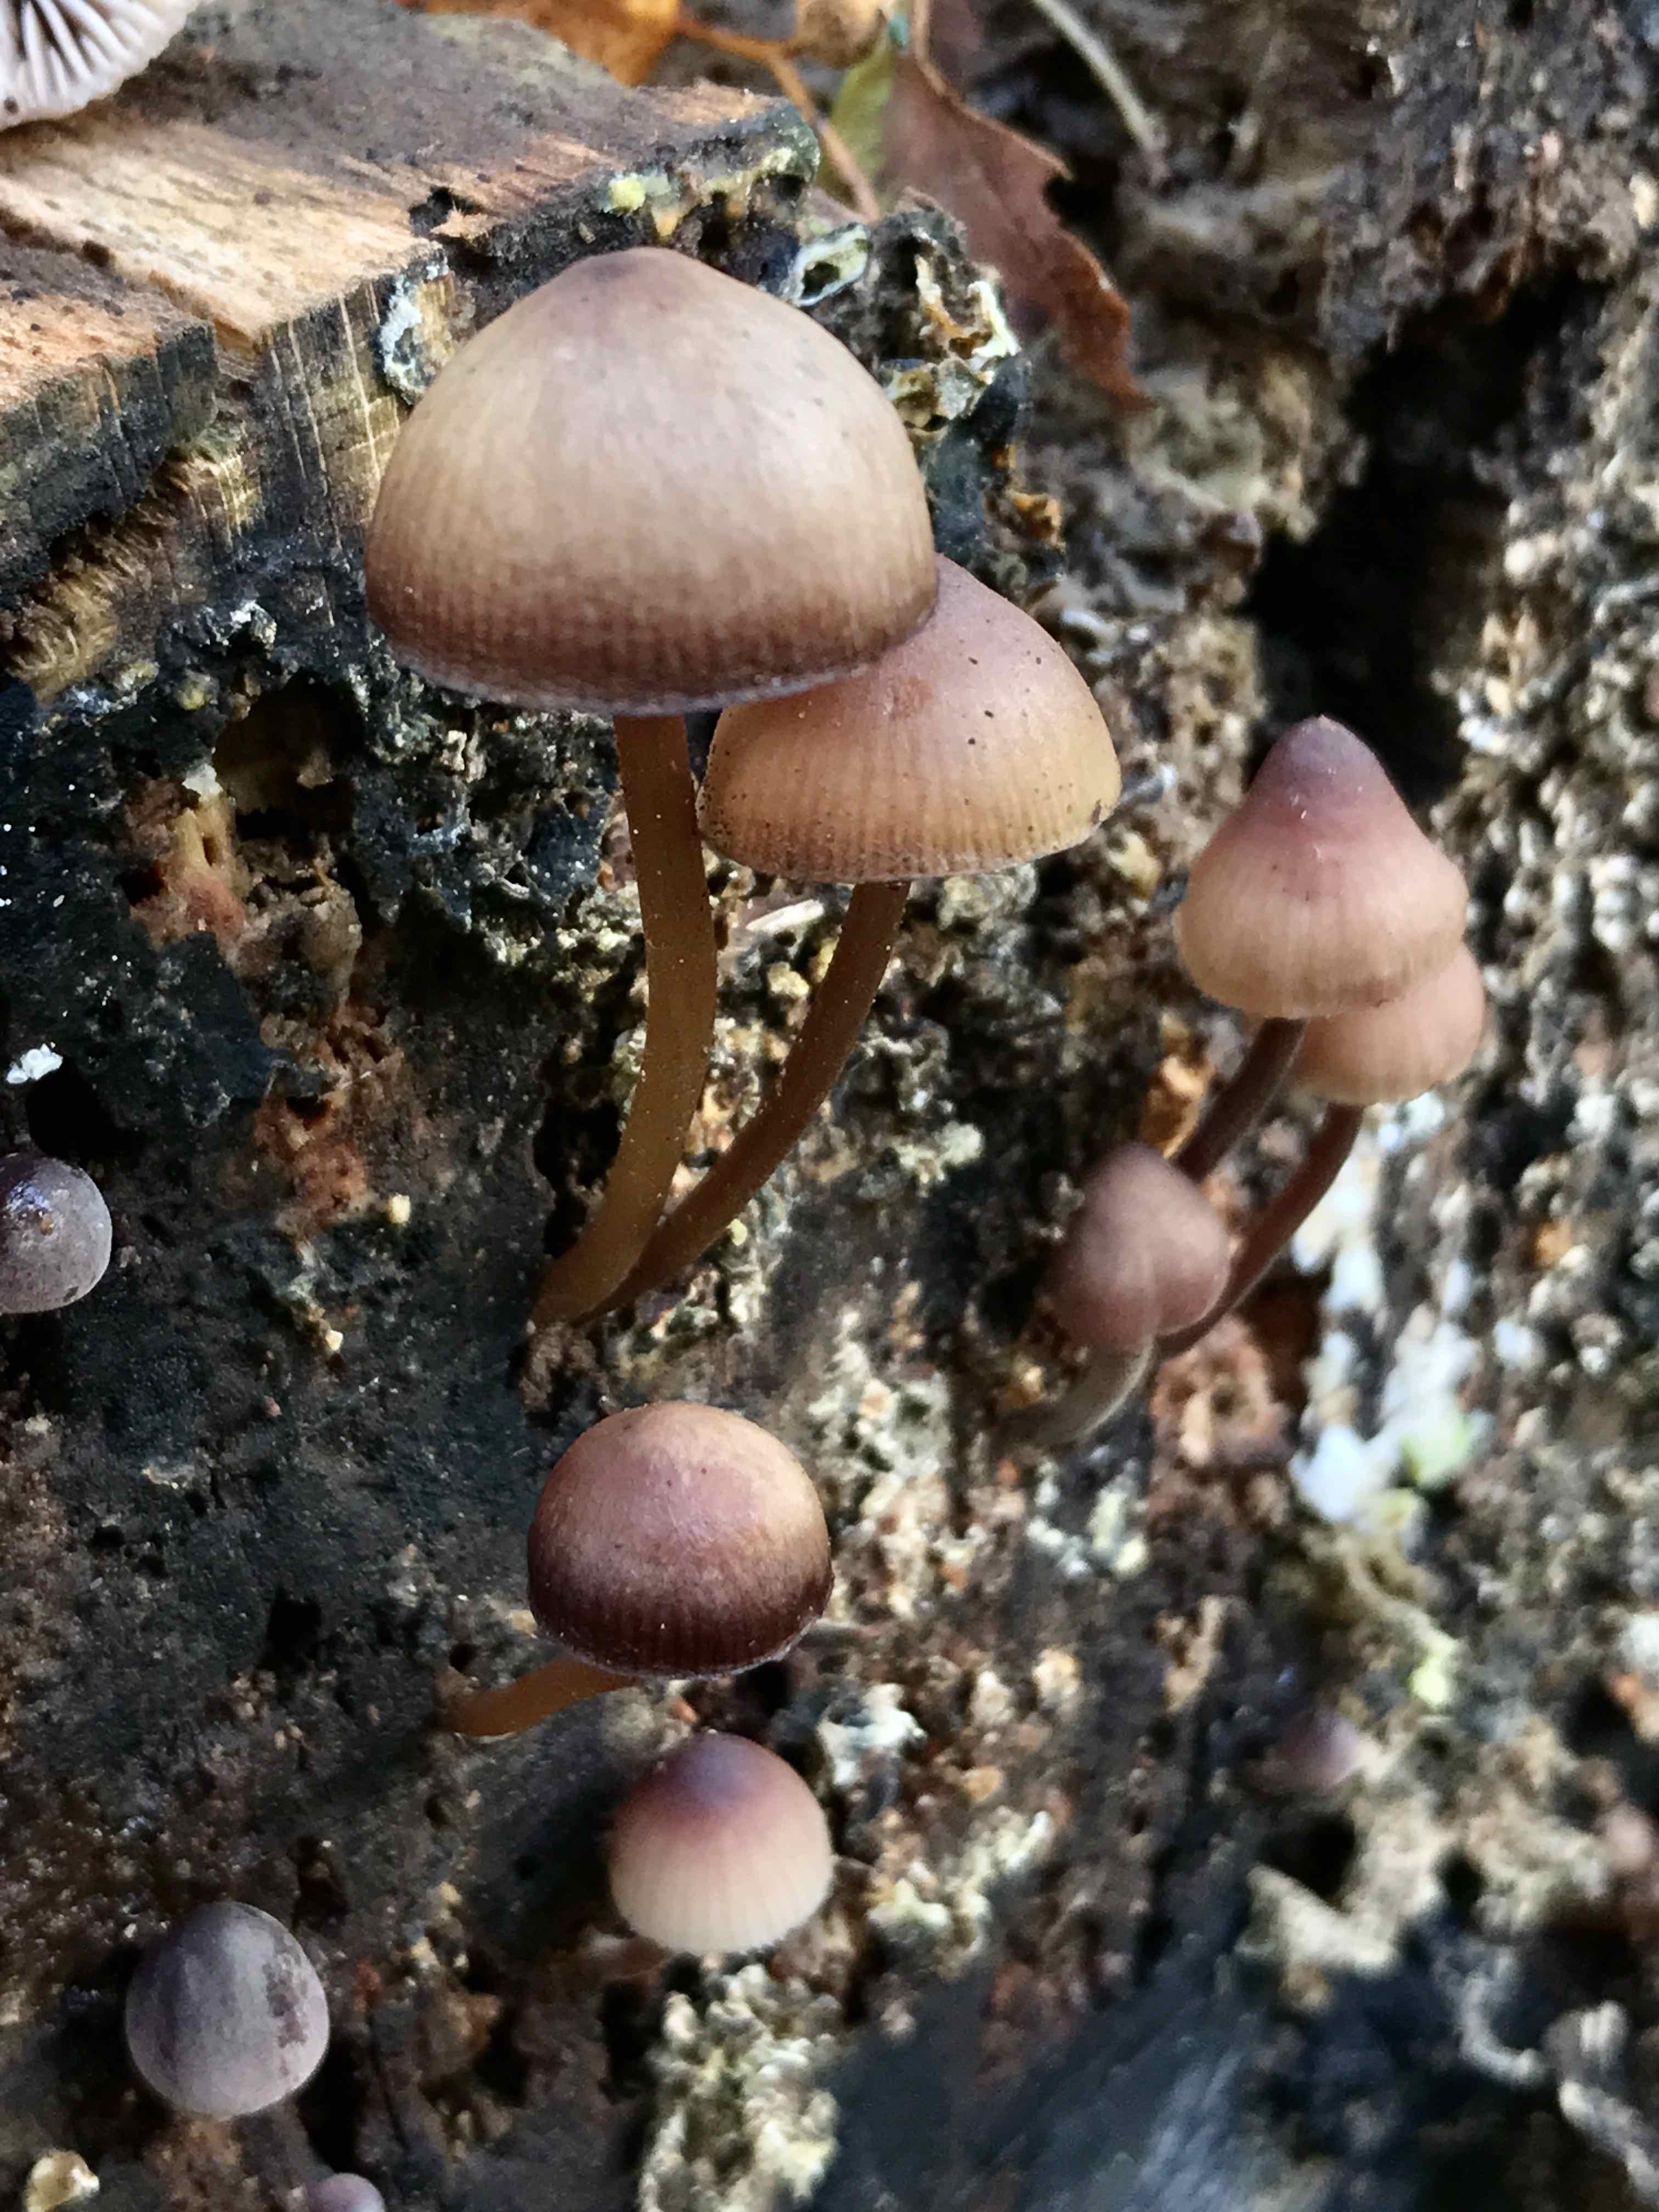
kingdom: Fungi
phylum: Basidiomycota
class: Agaricomycetes
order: Agaricales
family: Mycenaceae
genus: Mycena
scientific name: Mycena haematopus
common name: blødende huesvamp
